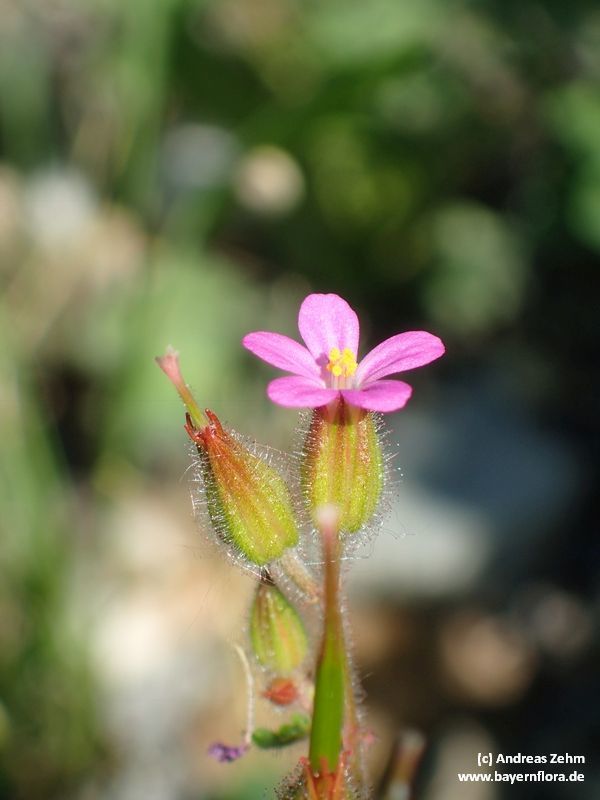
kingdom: Plantae
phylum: Tracheophyta
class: Magnoliopsida
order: Geraniales
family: Geraniaceae
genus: Geranium
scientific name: Geranium purpureum
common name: Little-robin
